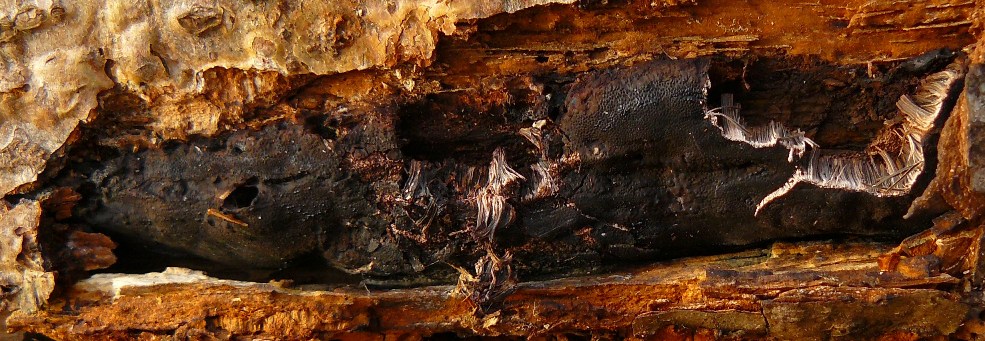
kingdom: Fungi
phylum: Ascomycota
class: Sordariomycetes
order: Boliniales
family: Boliniaceae
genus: Camarops
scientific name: Camarops polysperma
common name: elle-kulsnegl
